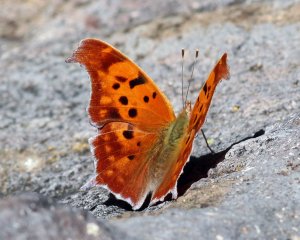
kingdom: Animalia
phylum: Arthropoda
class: Insecta
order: Lepidoptera
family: Nymphalidae
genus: Polygonia
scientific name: Polygonia interrogationis
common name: Question Mark
